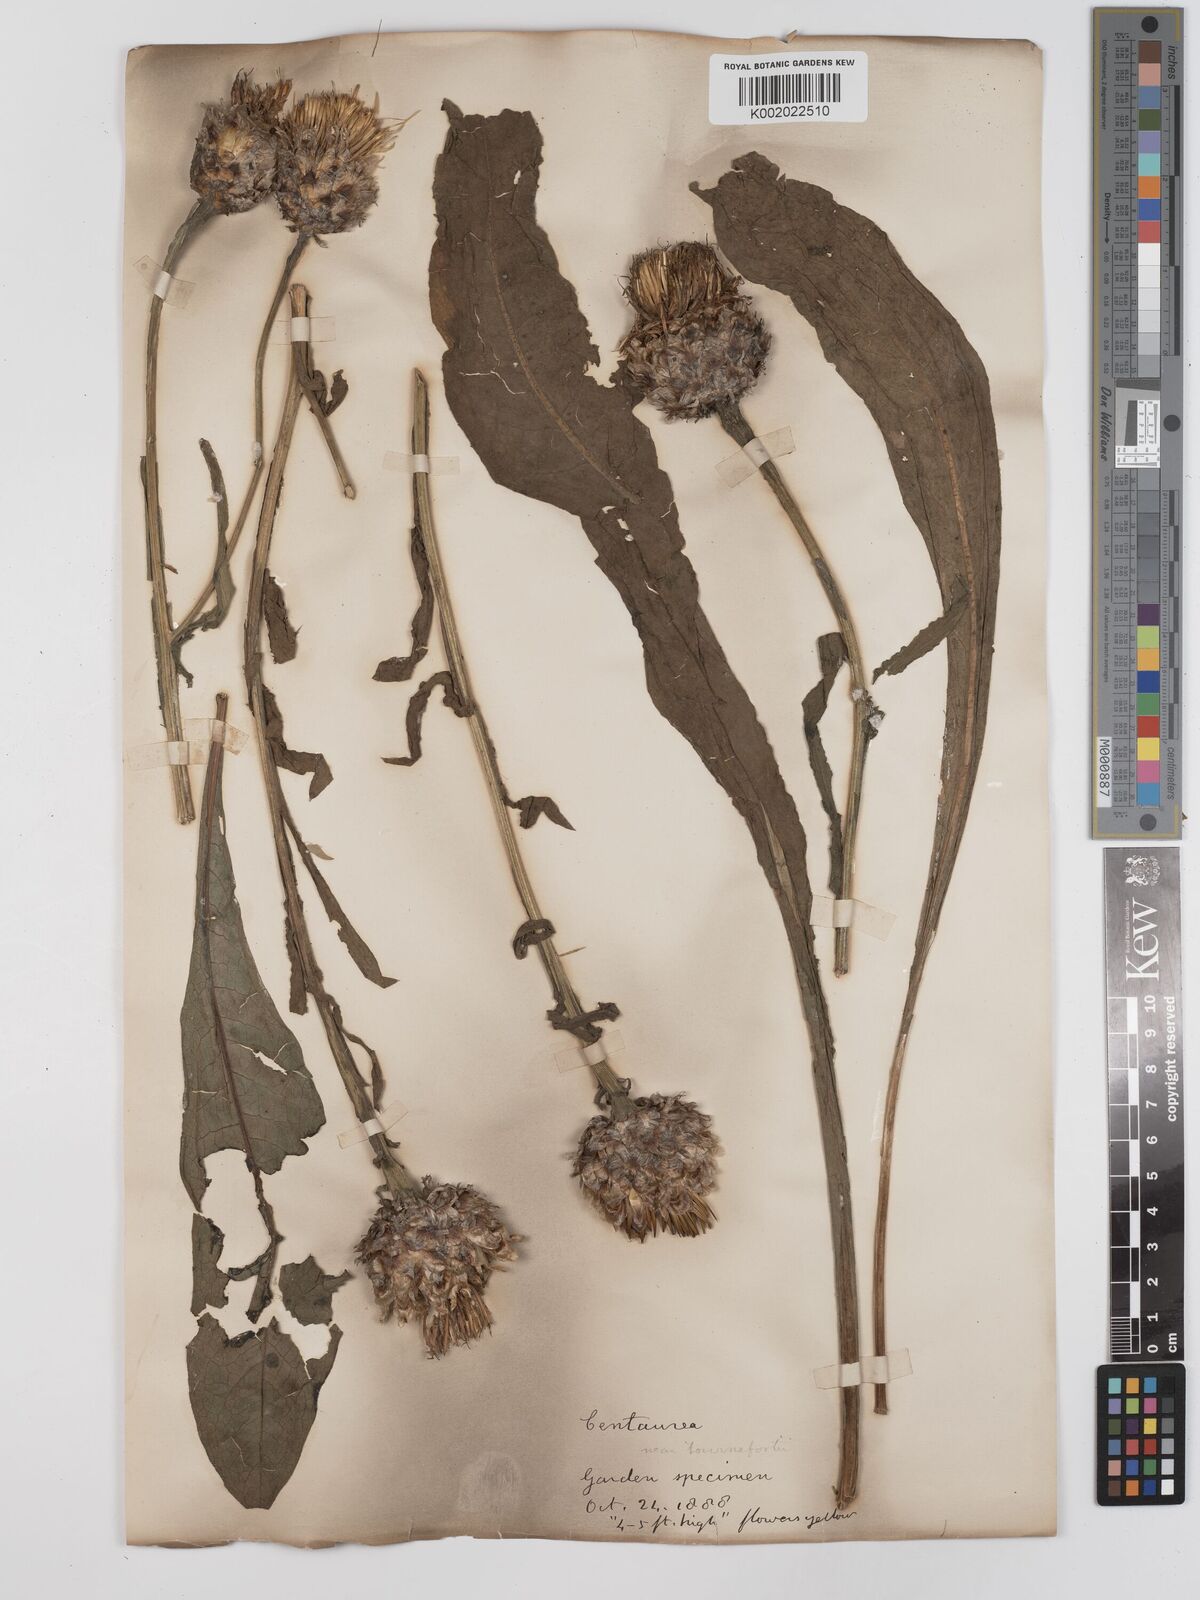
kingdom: Plantae
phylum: Tracheophyta
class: Magnoliopsida
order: Asterales
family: Asteraceae
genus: Centaurea
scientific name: Centaurea glastifolia
